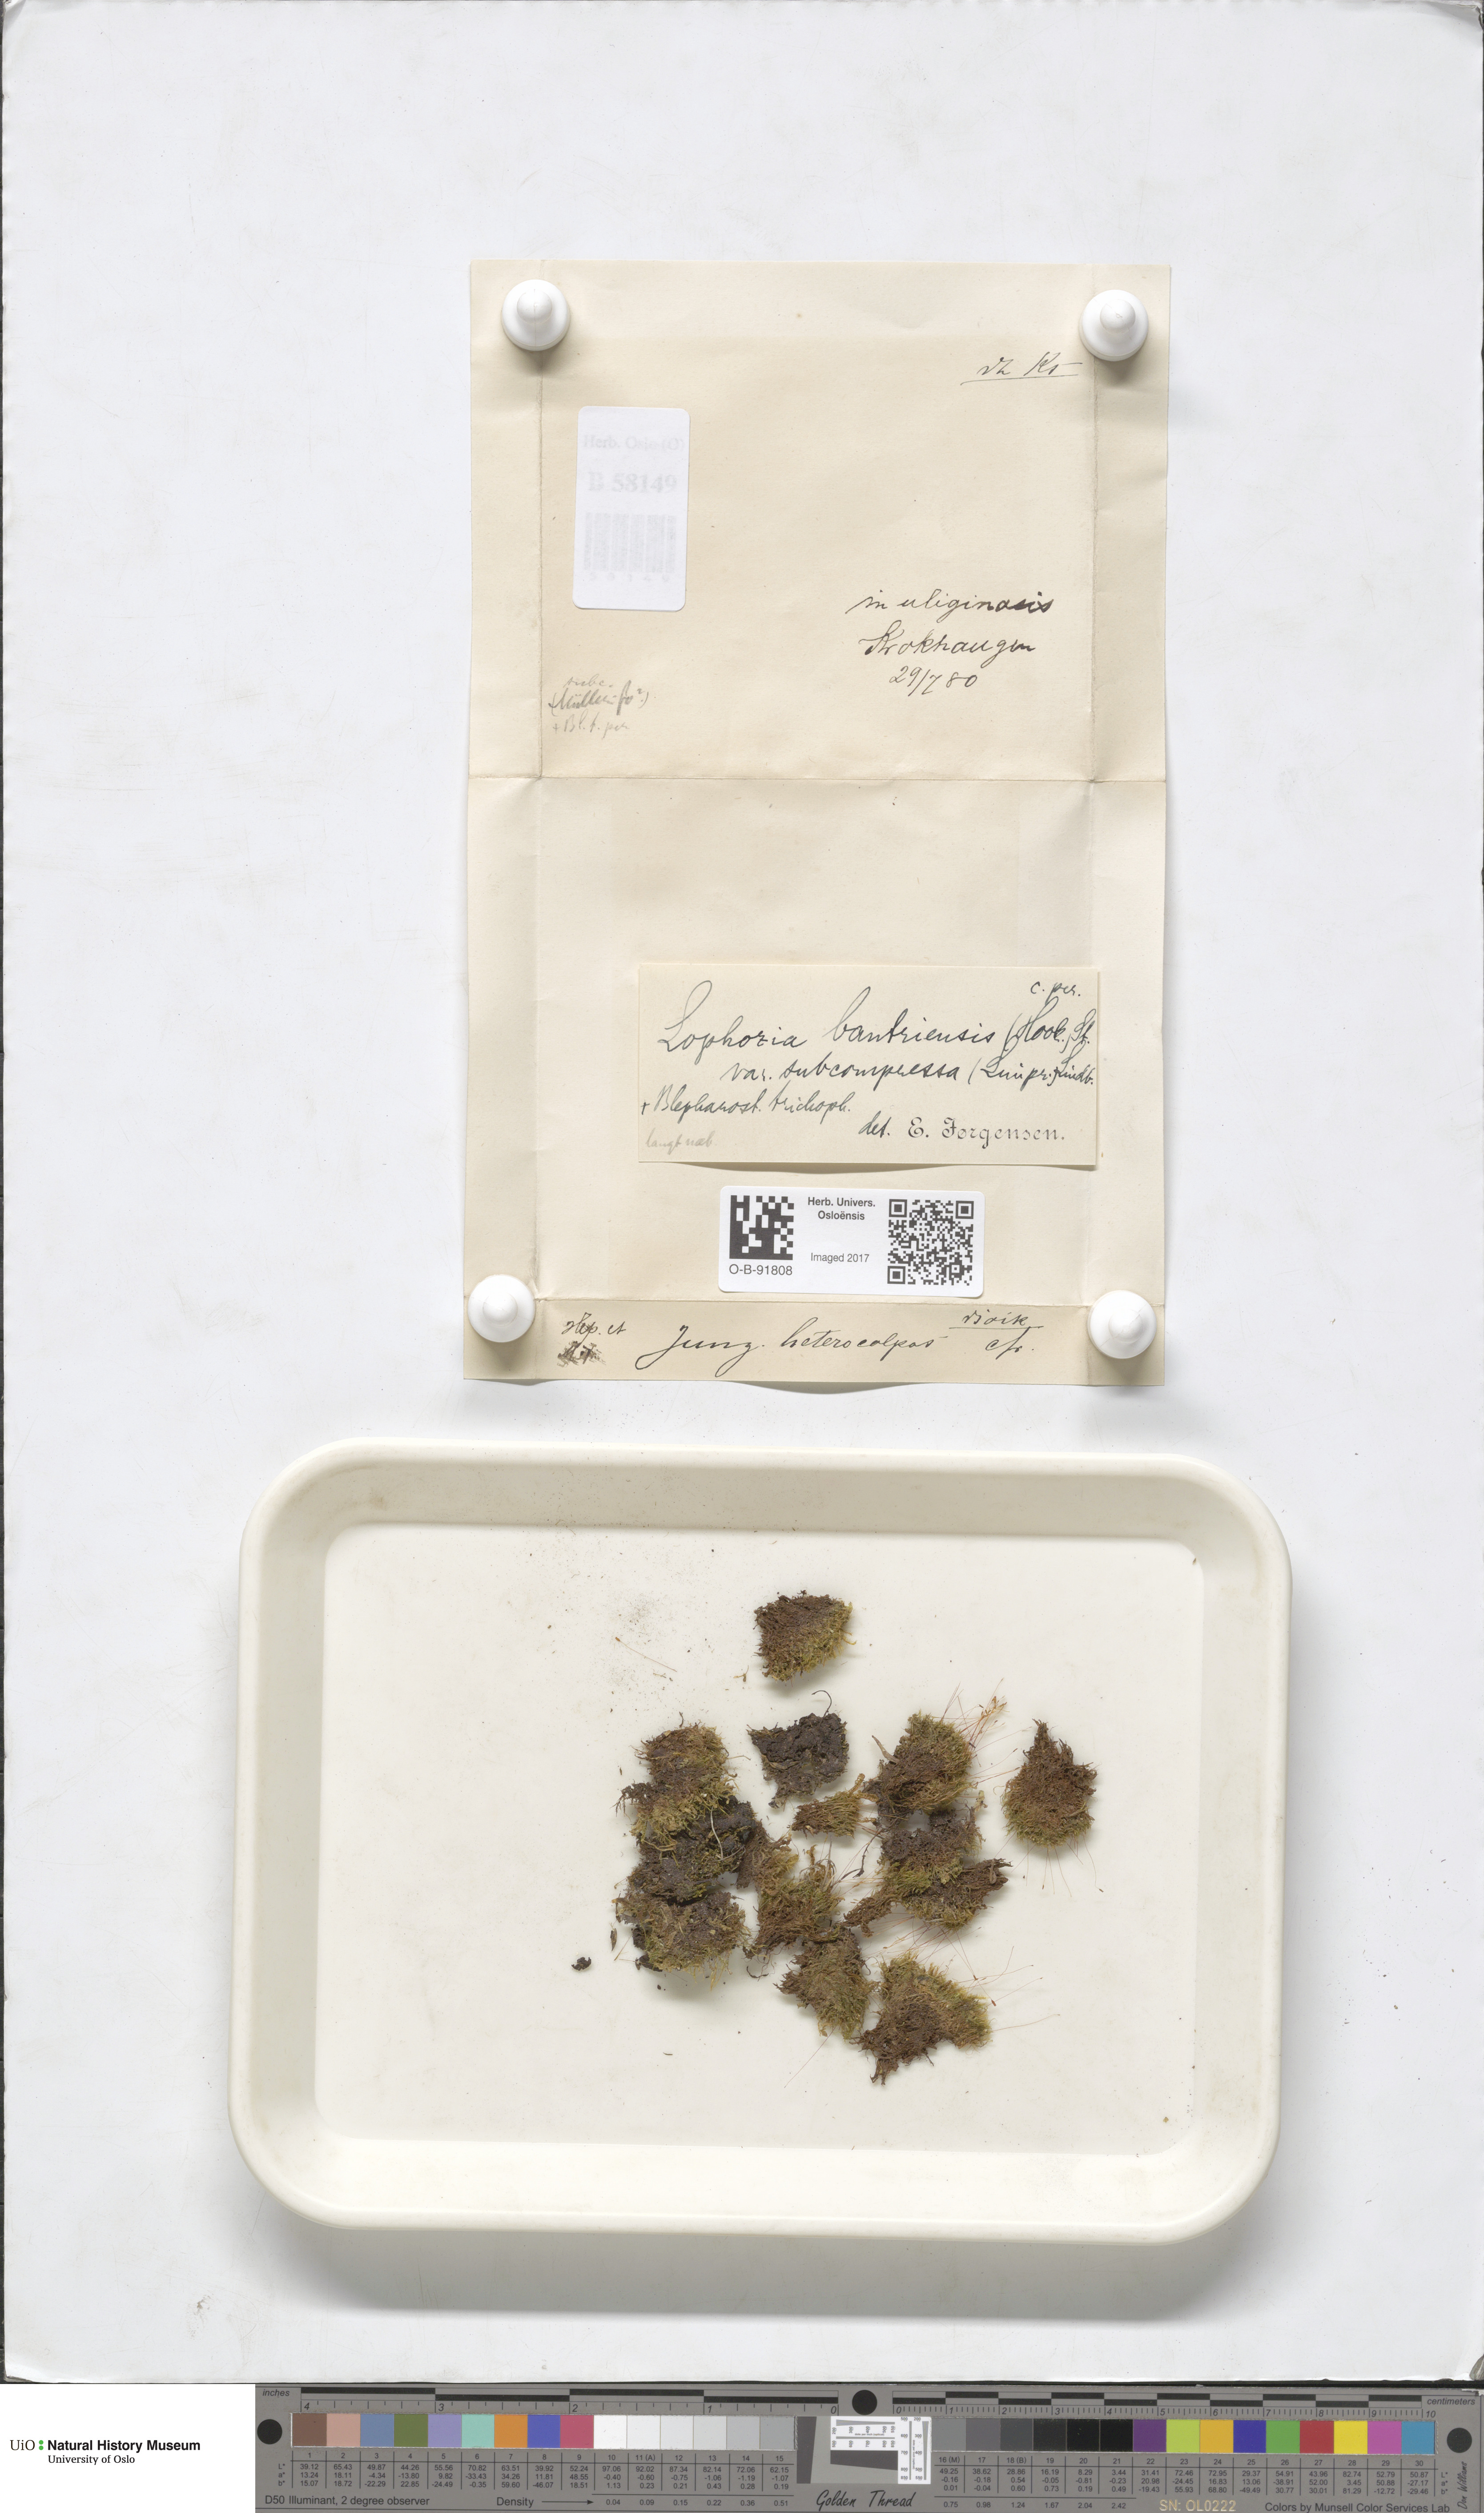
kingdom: Plantae
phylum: Marchantiophyta
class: Jungermanniopsida
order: Jungermanniales
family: Jungermanniaceae
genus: Mesoptychia
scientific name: Mesoptychia bantriensis
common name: Bantry notchwort
